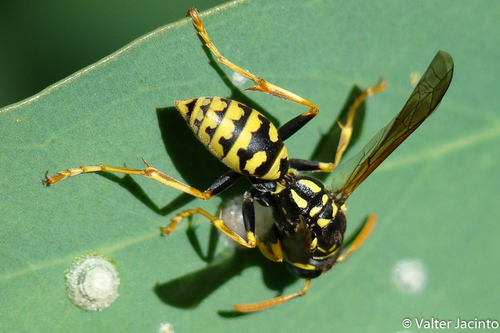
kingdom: Animalia
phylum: Arthropoda
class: Insecta
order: Hymenoptera
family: Eumenidae
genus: Polistes
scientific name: Polistes dominula
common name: Paper wasp
